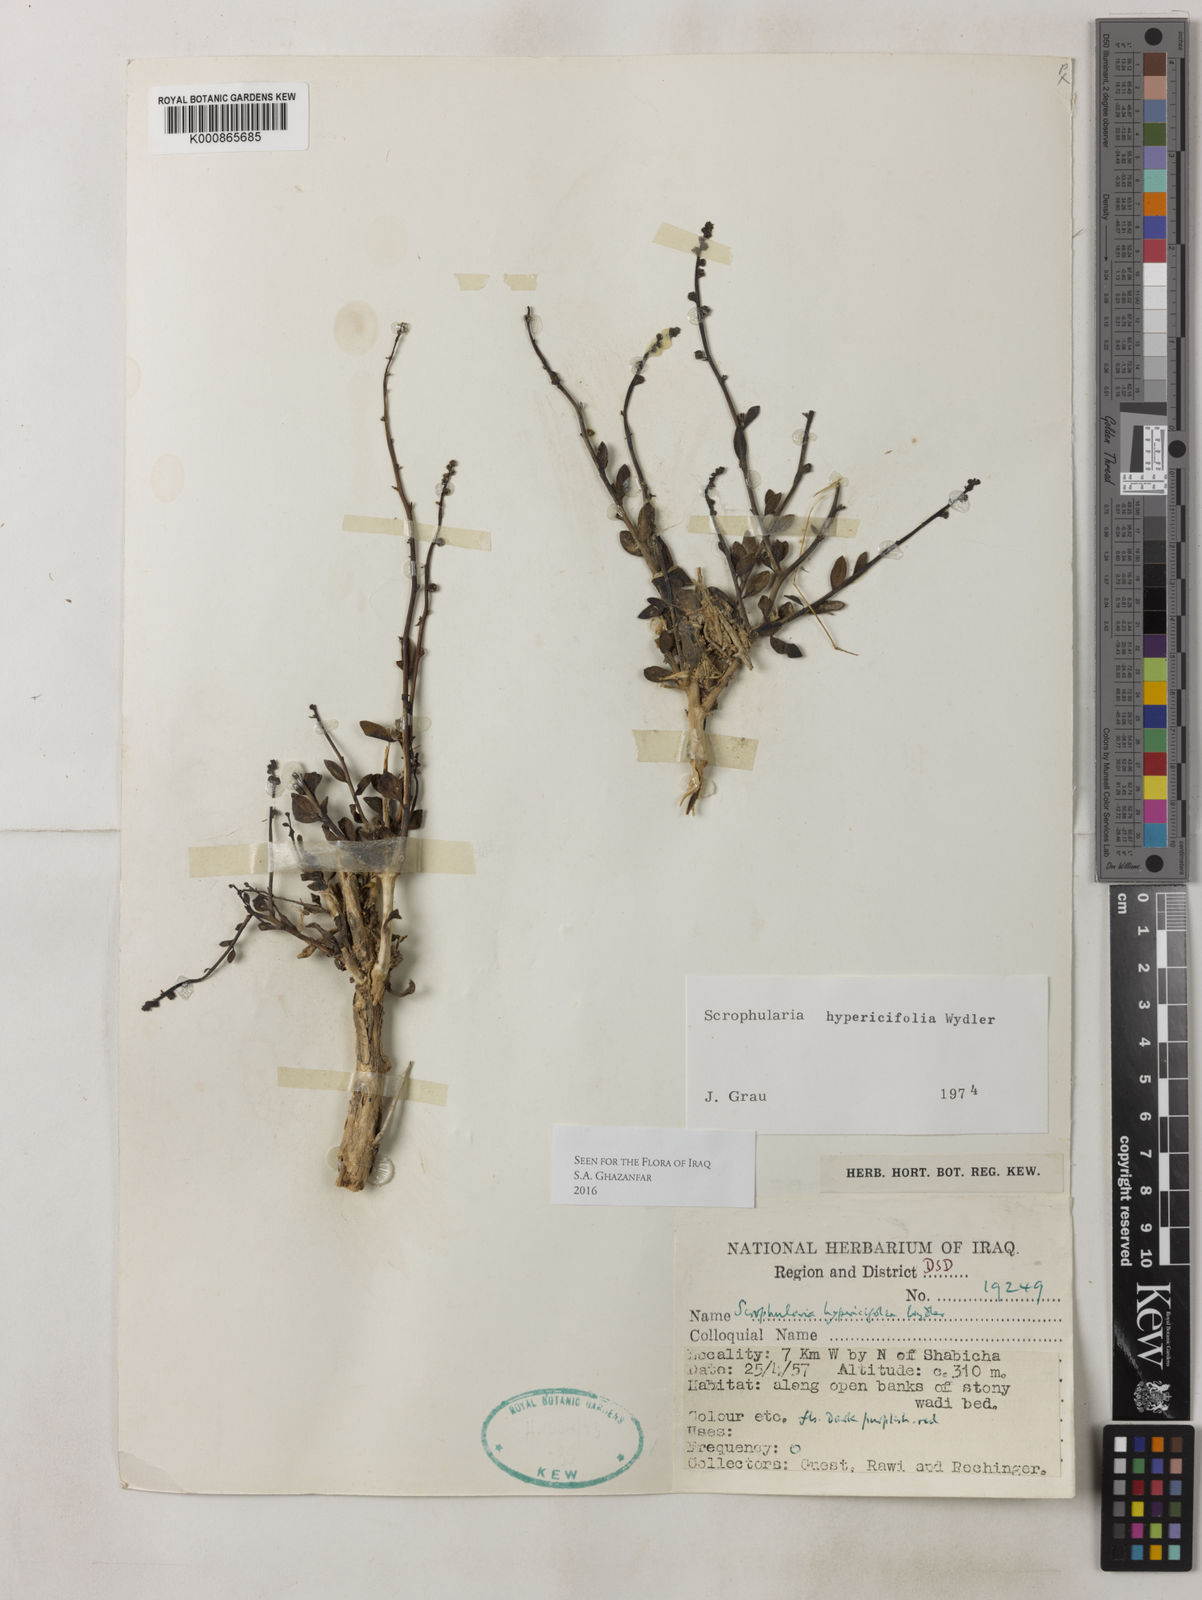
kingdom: Plantae
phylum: Tracheophyta
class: Magnoliopsida
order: Lamiales
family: Scrophulariaceae
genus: Scrophularia
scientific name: Scrophularia hypericifolia
